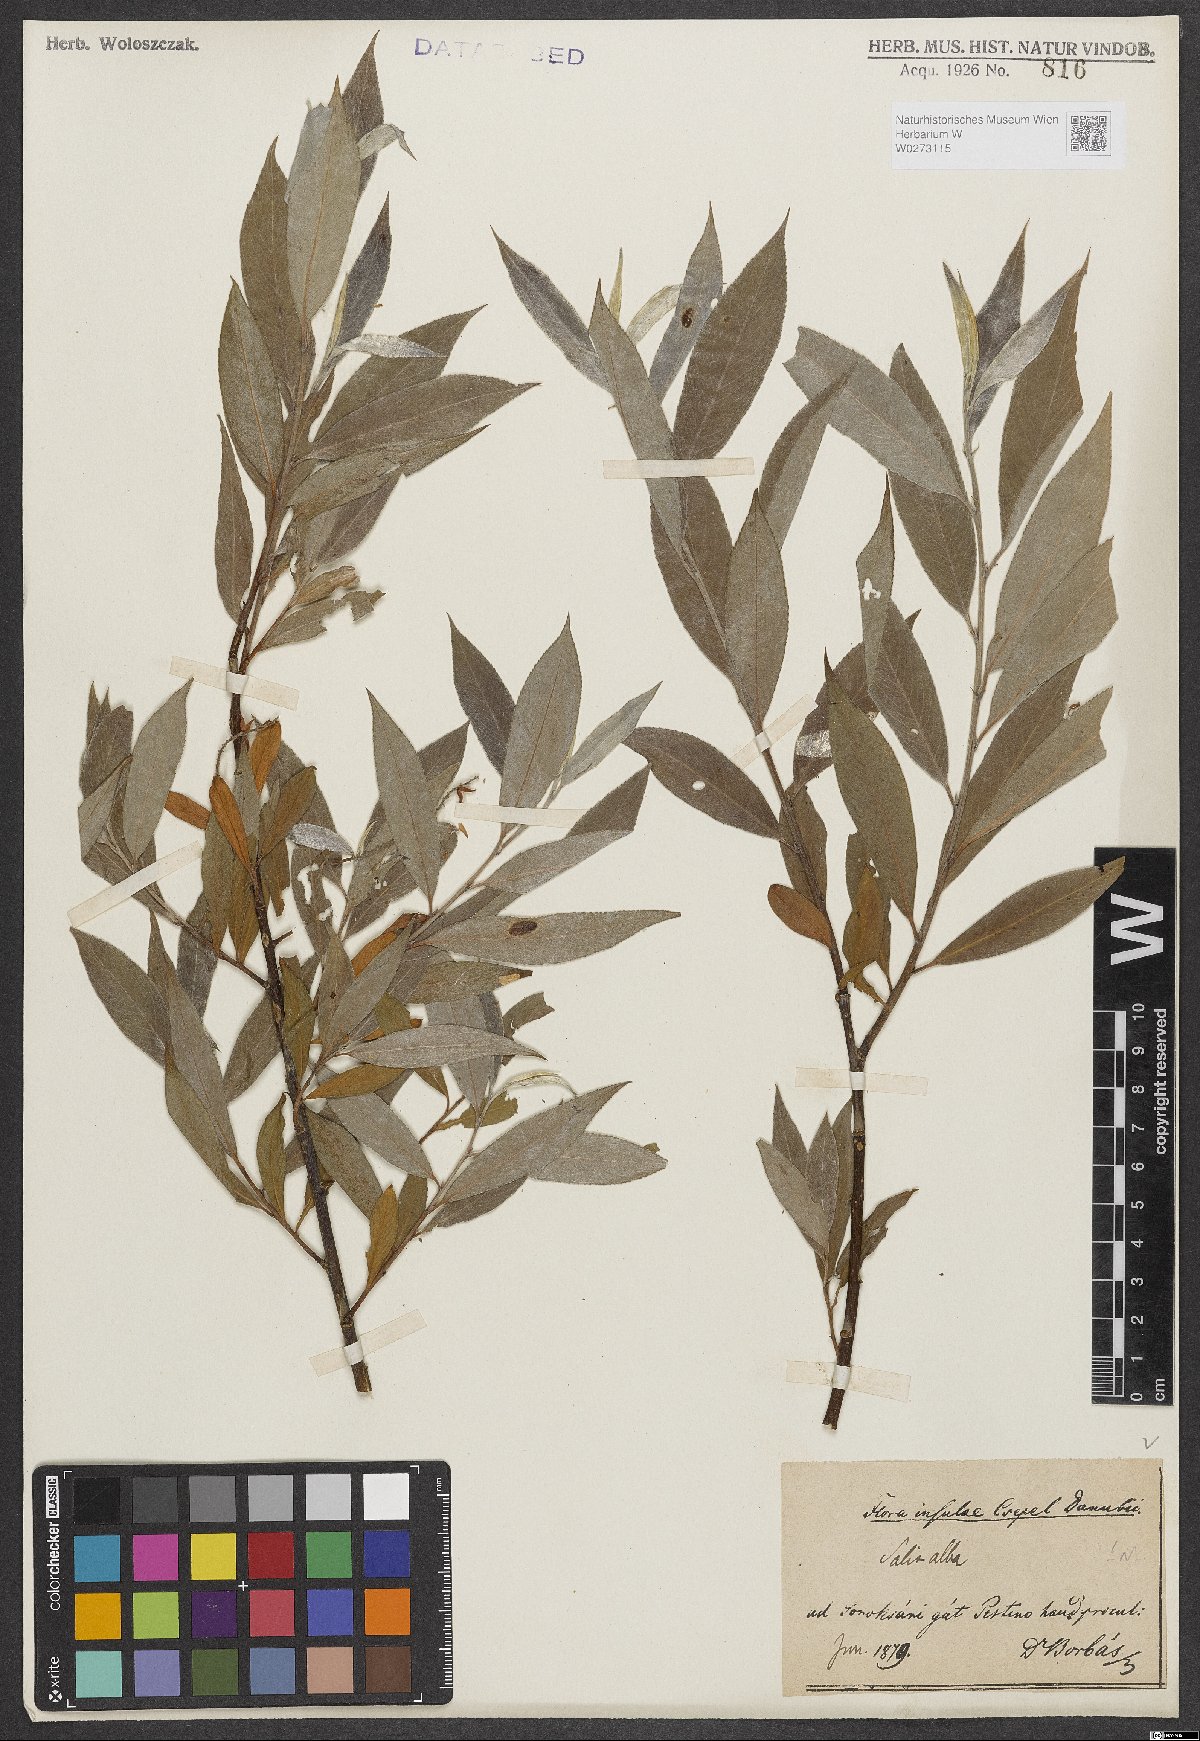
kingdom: Plantae
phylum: Tracheophyta
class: Magnoliopsida
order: Malpighiales
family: Salicaceae
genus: Salix
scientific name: Salix alba
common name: White willow
